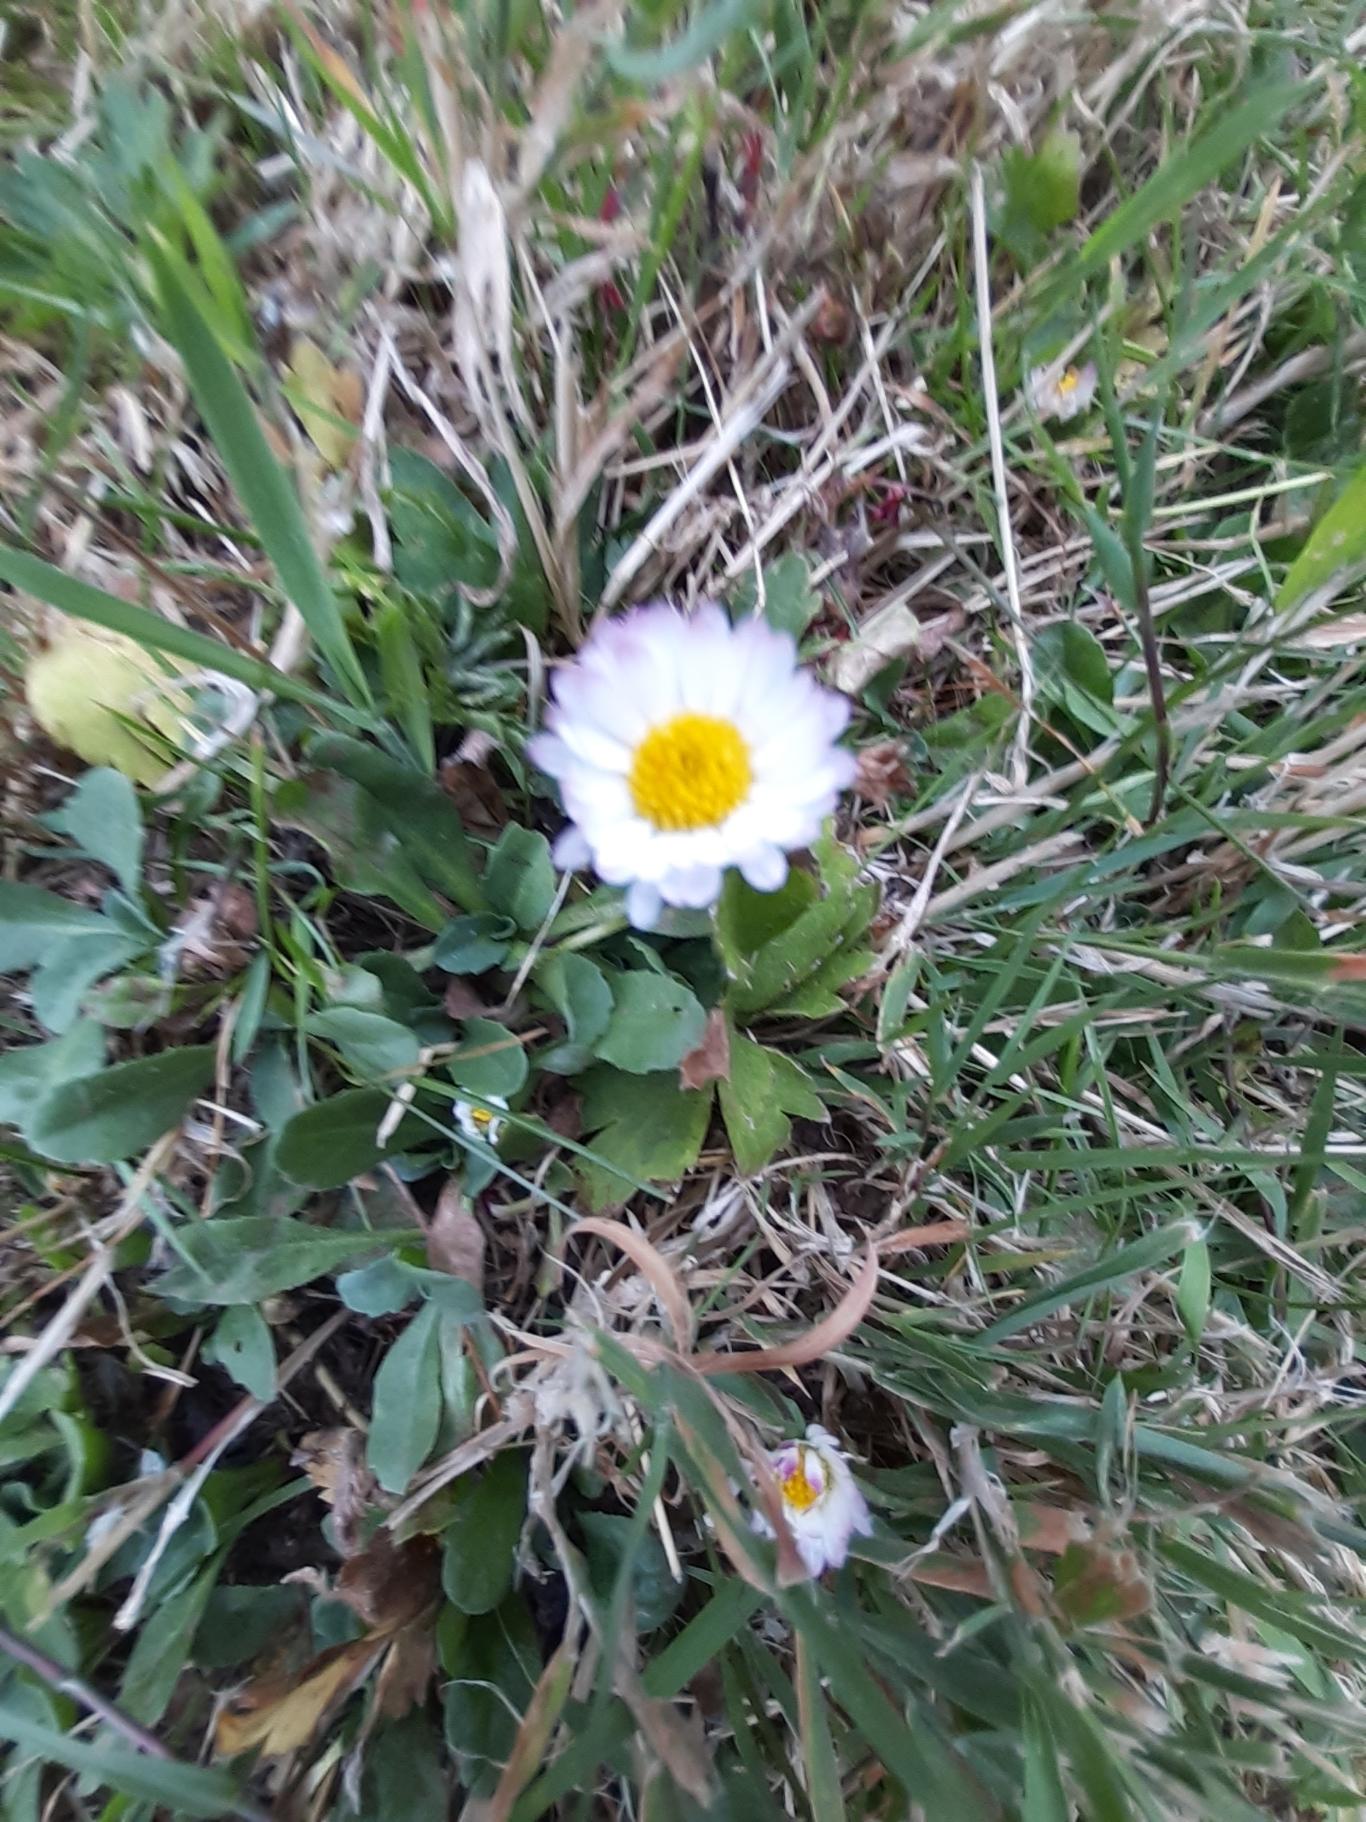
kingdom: Plantae
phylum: Tracheophyta
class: Magnoliopsida
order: Asterales
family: Asteraceae
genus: Bellis
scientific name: Bellis perennis
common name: Tusindfryd
